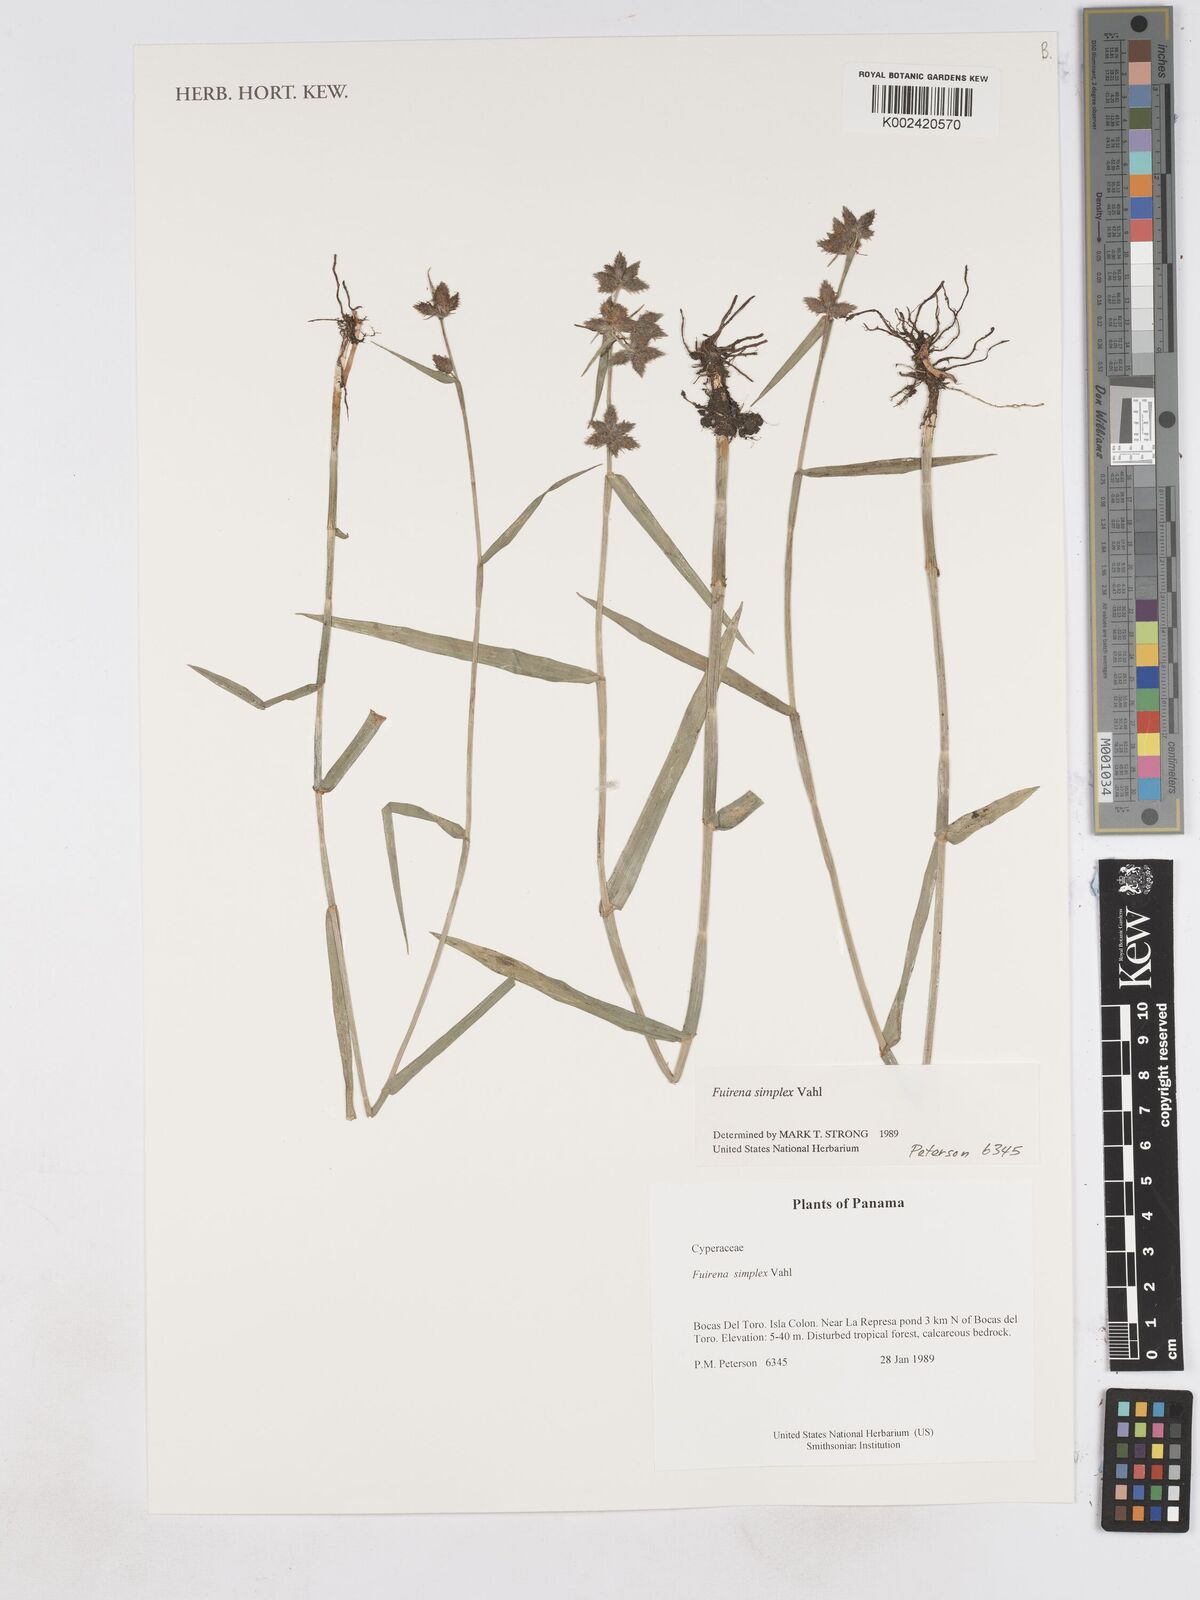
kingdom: Plantae
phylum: Tracheophyta
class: Liliopsida
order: Poales
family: Cyperaceae
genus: Fuirena
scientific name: Fuirena simplex
